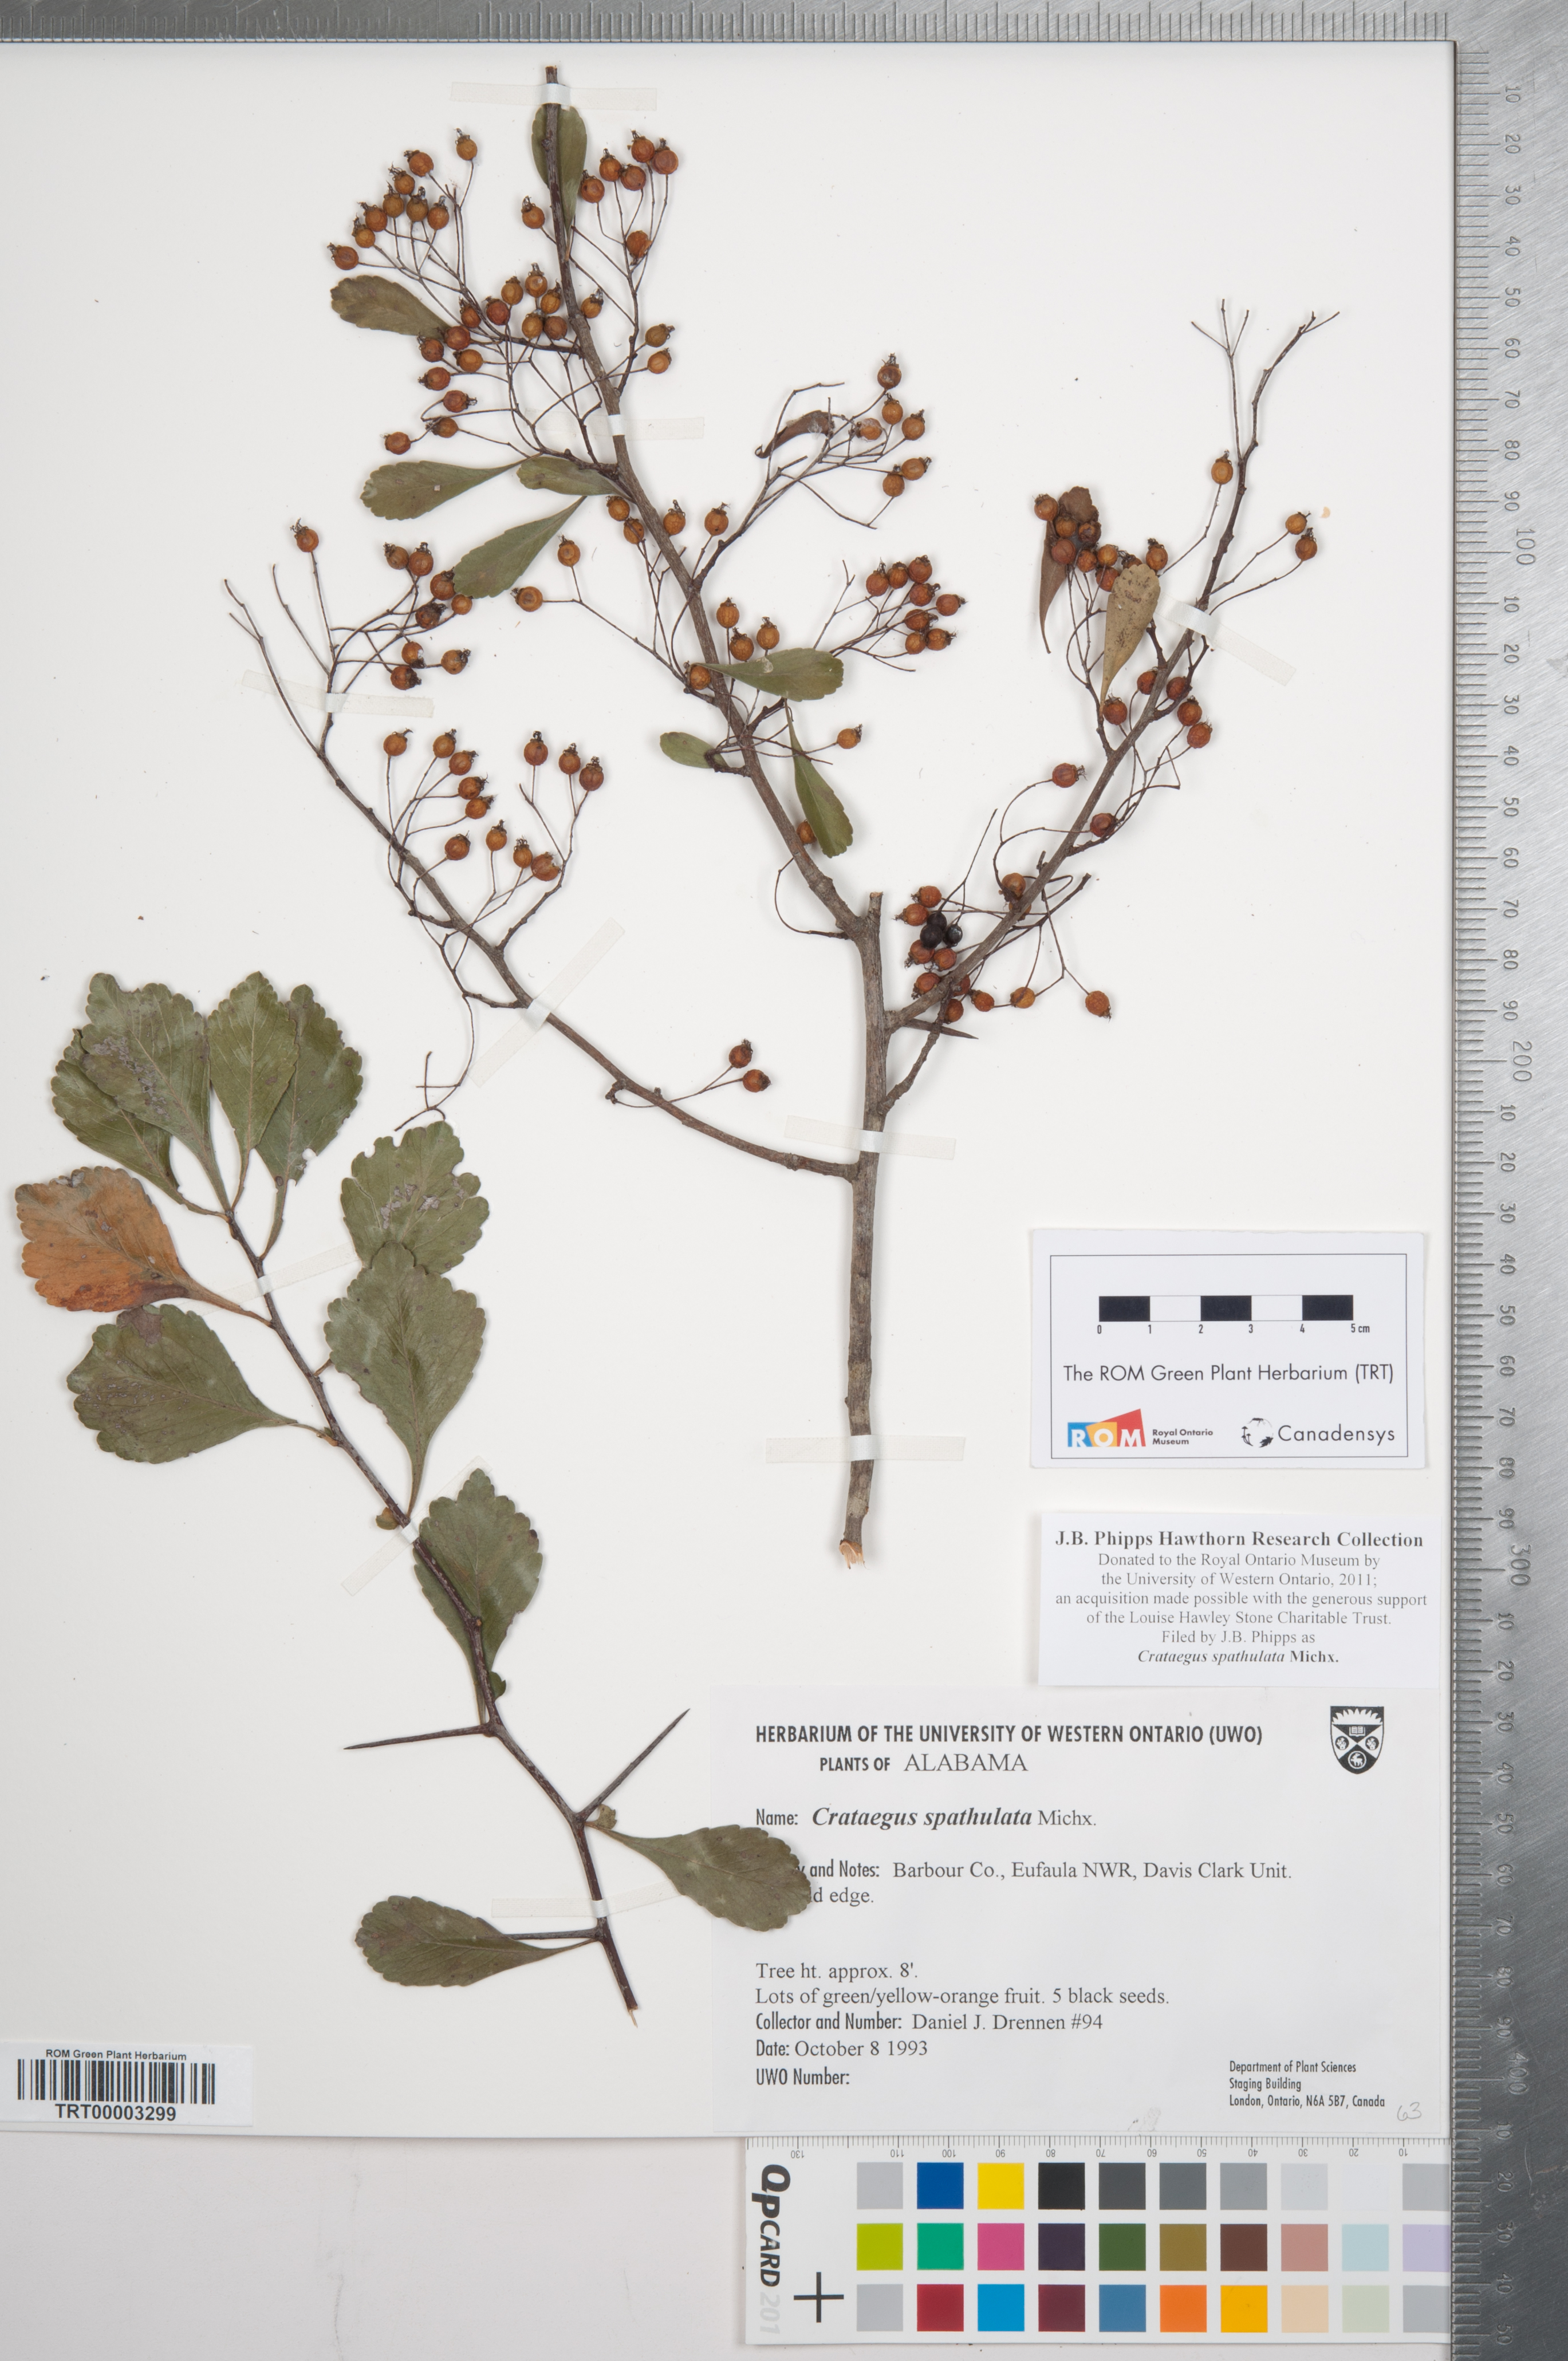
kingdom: Plantae
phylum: Tracheophyta
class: Magnoliopsida
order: Rosales
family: Rosaceae
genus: Crataegus
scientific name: Crataegus spathulata
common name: Littlehip hawthorn
